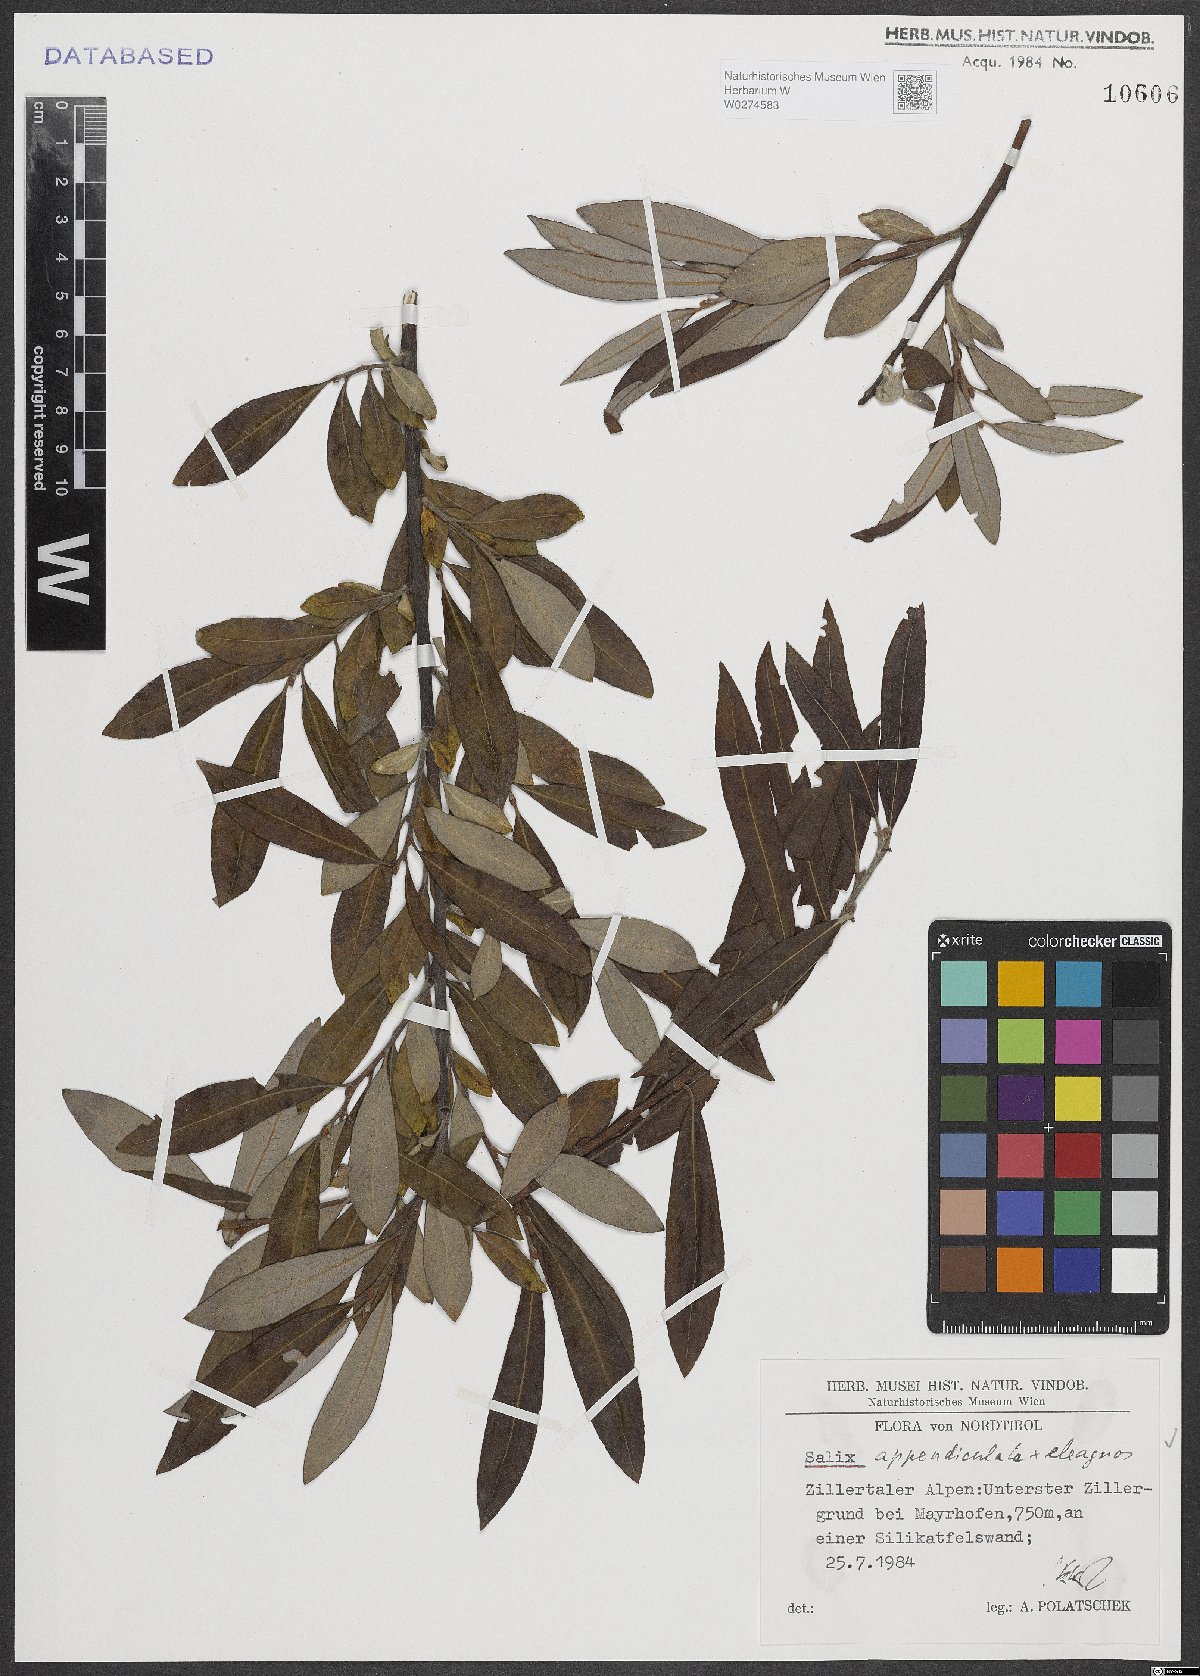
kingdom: Plantae
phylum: Tracheophyta
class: Magnoliopsida
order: Malpighiales
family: Salicaceae
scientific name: Salicaceae
